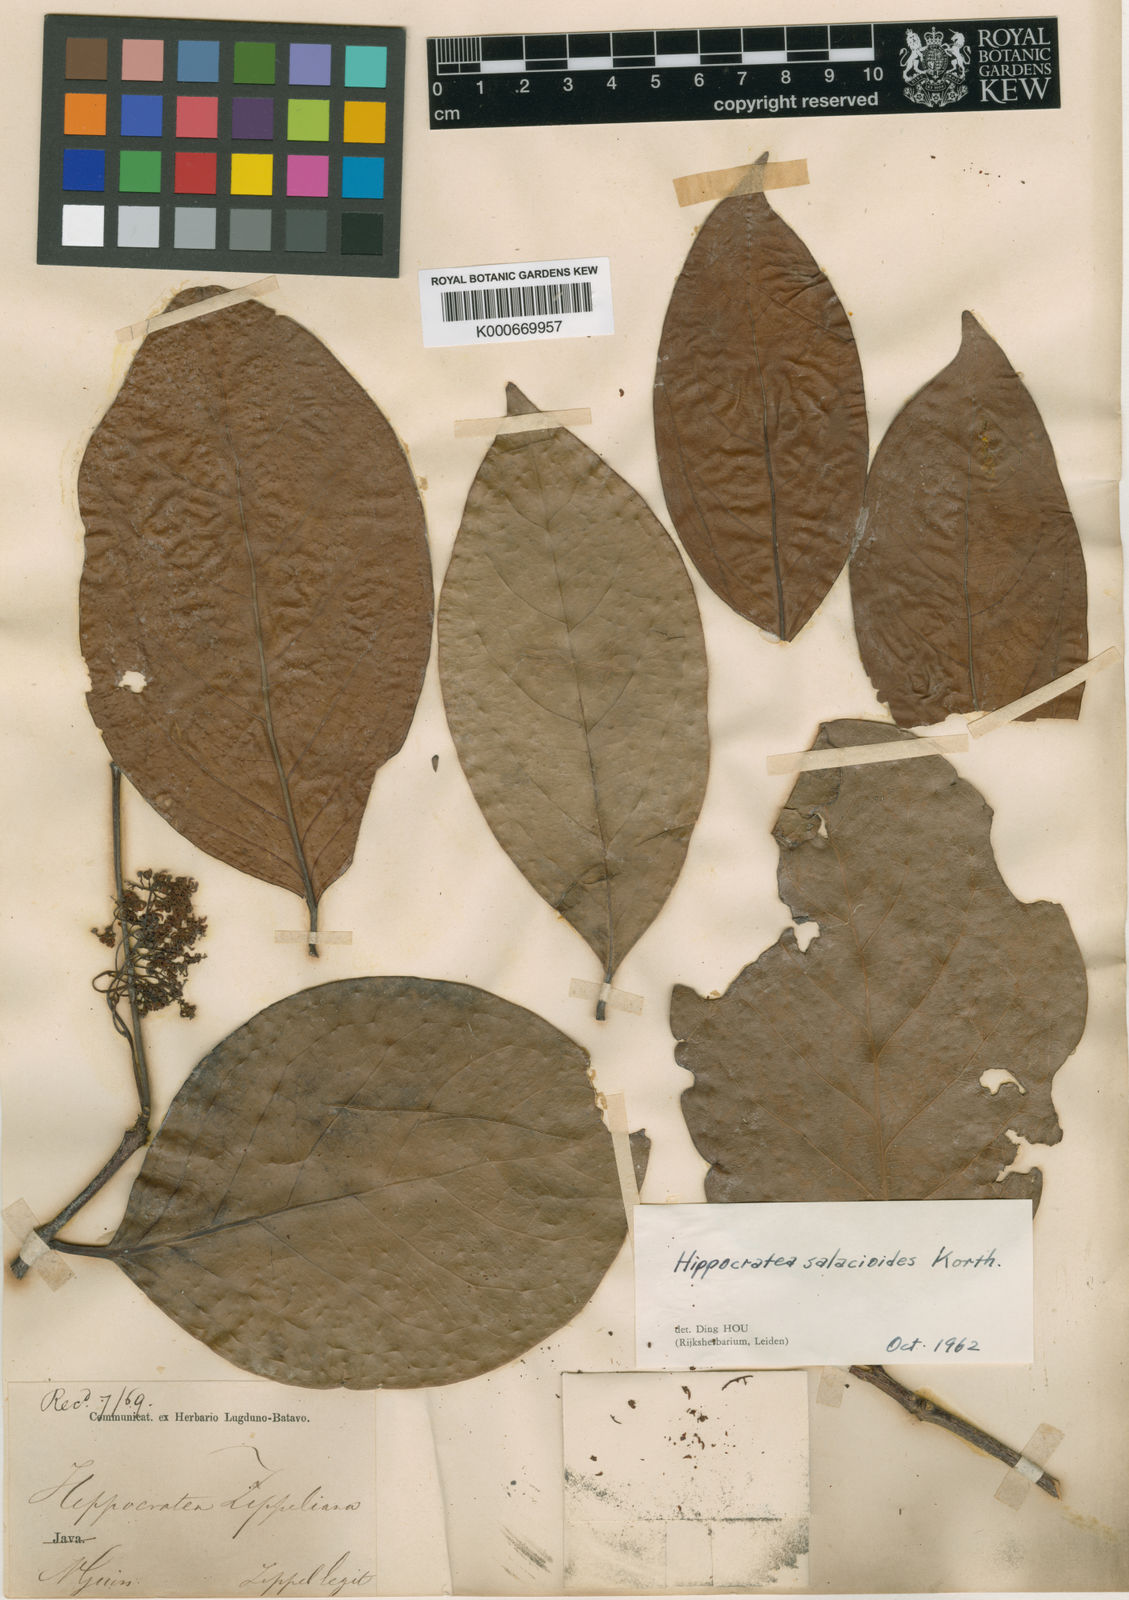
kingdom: Plantae
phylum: Tracheophyta
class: Magnoliopsida
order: Celastrales
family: Celastraceae
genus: Arnicratea
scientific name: Arnicratea grahamii
